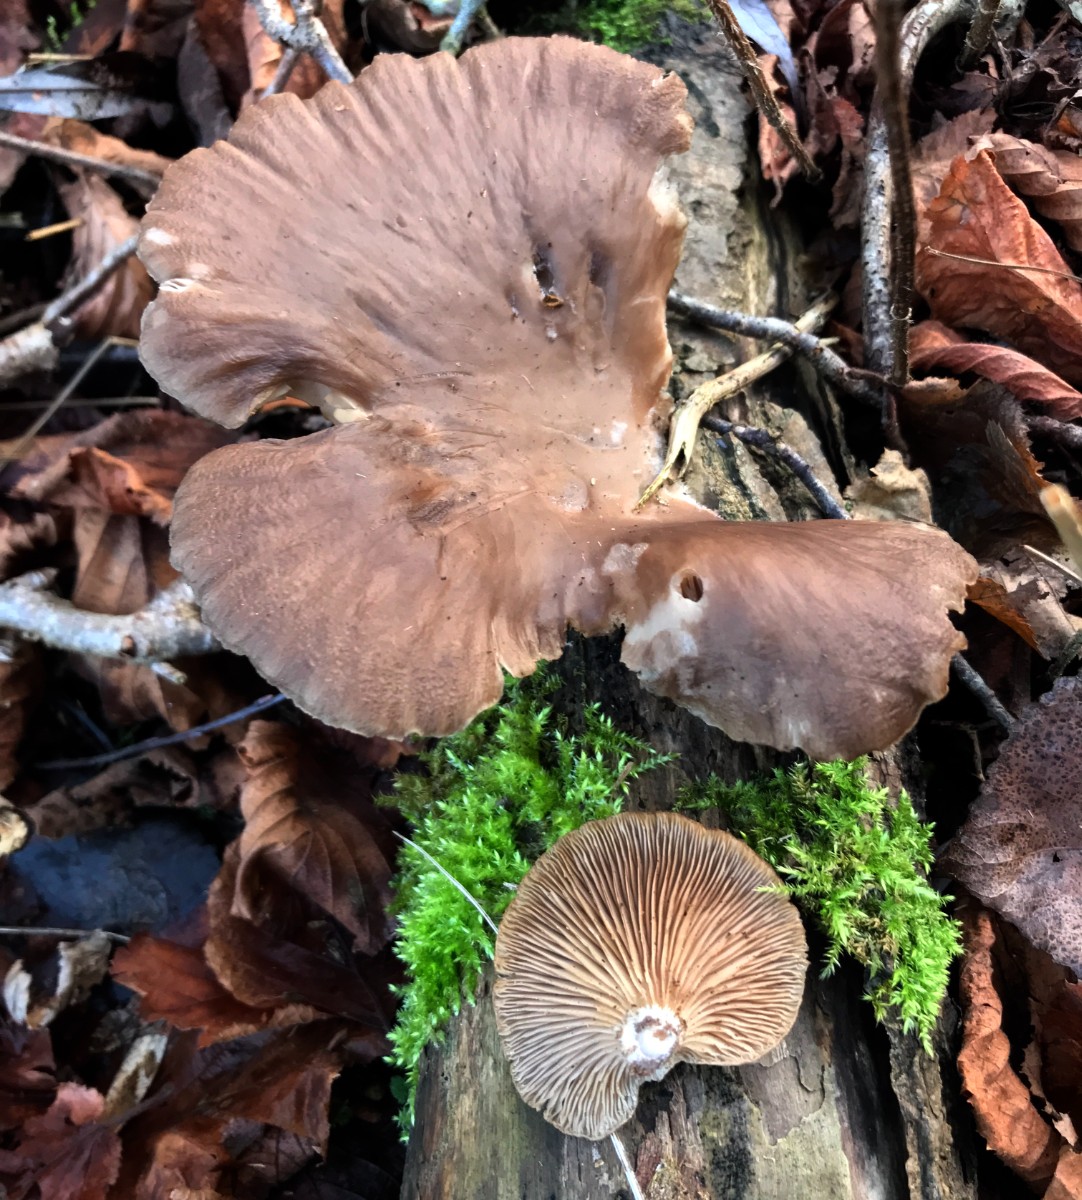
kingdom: Fungi
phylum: Basidiomycota
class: Agaricomycetes
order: Agaricales
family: Pleurotaceae
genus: Pleurotus
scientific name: Pleurotus ostreatus
